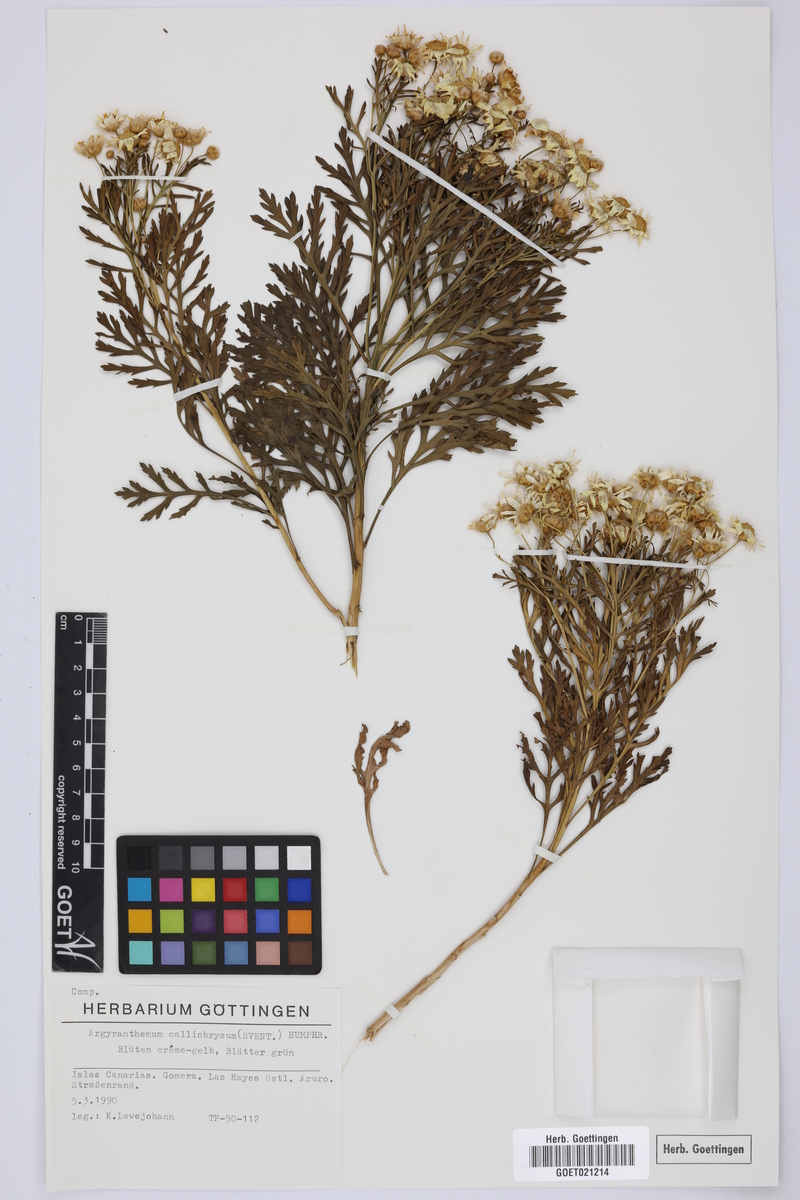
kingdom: Plantae
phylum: Tracheophyta
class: Magnoliopsida
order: Asterales
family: Asteraceae
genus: Argyranthemum
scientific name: Argyranthemum callichrysum
